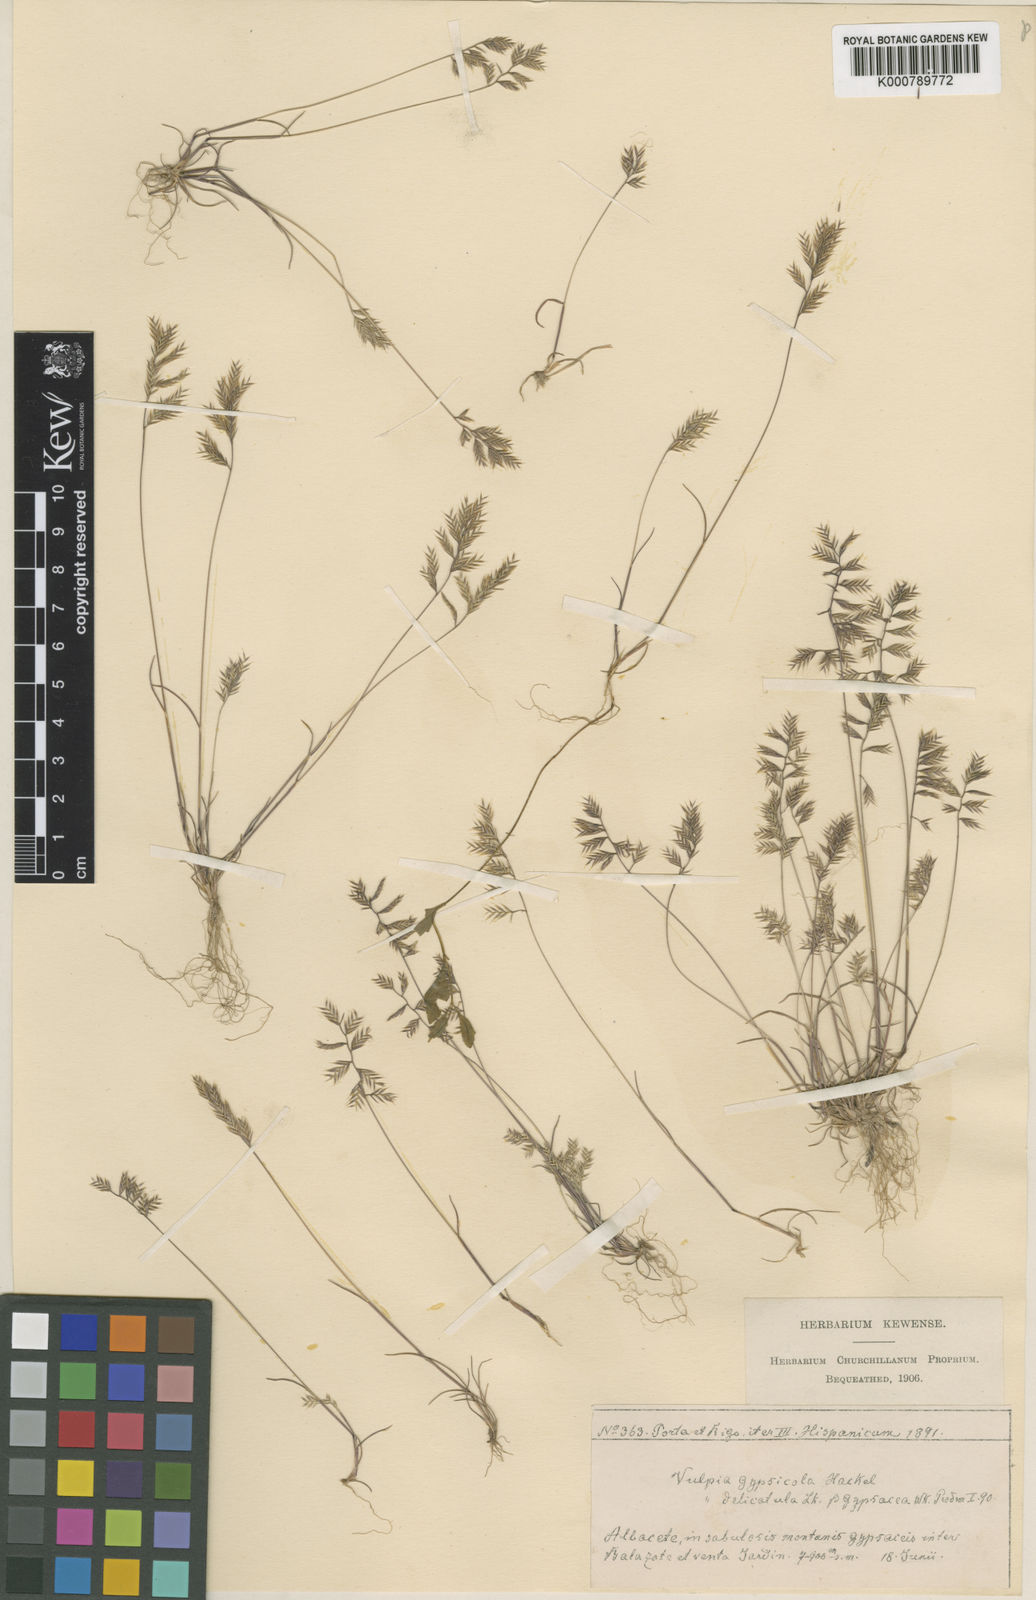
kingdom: Plantae
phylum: Tracheophyta
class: Liliopsida
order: Poales
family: Poaceae
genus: Festuca
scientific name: Festuca gypsophila
